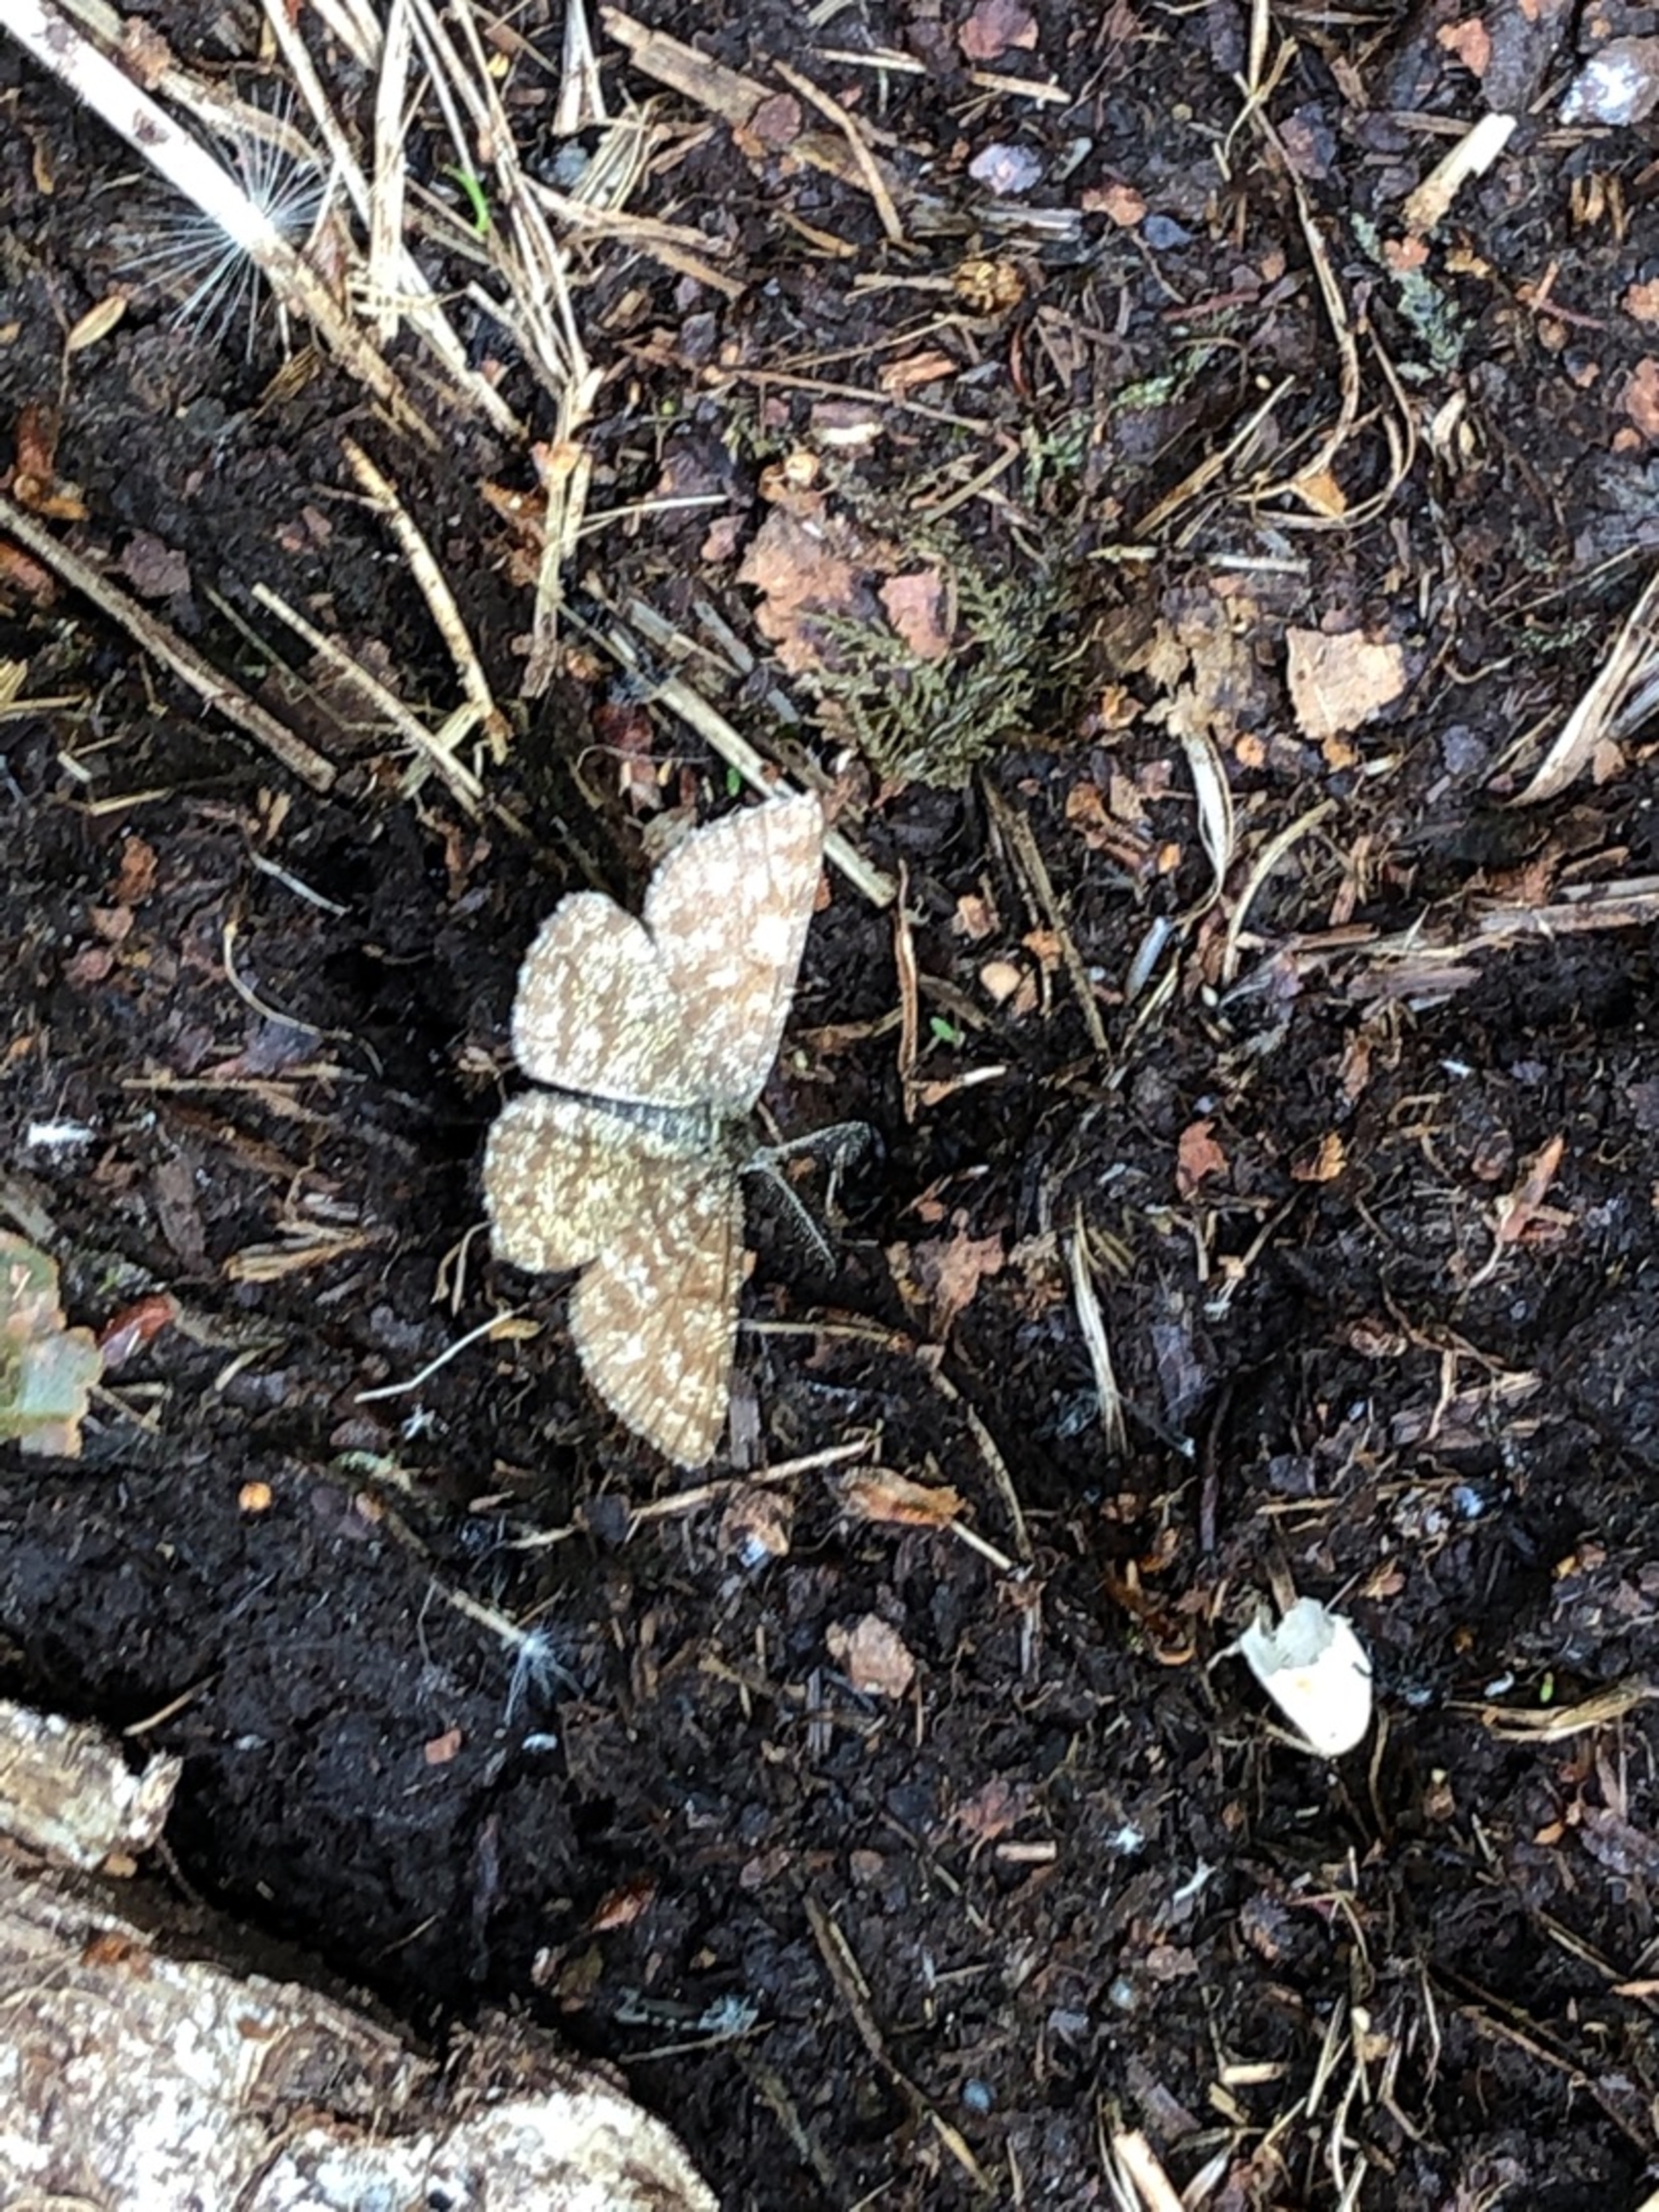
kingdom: Animalia
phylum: Arthropoda
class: Insecta
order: Lepidoptera
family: Geometridae
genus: Ematurga
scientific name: Ematurga atomaria
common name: Lyngmåler
